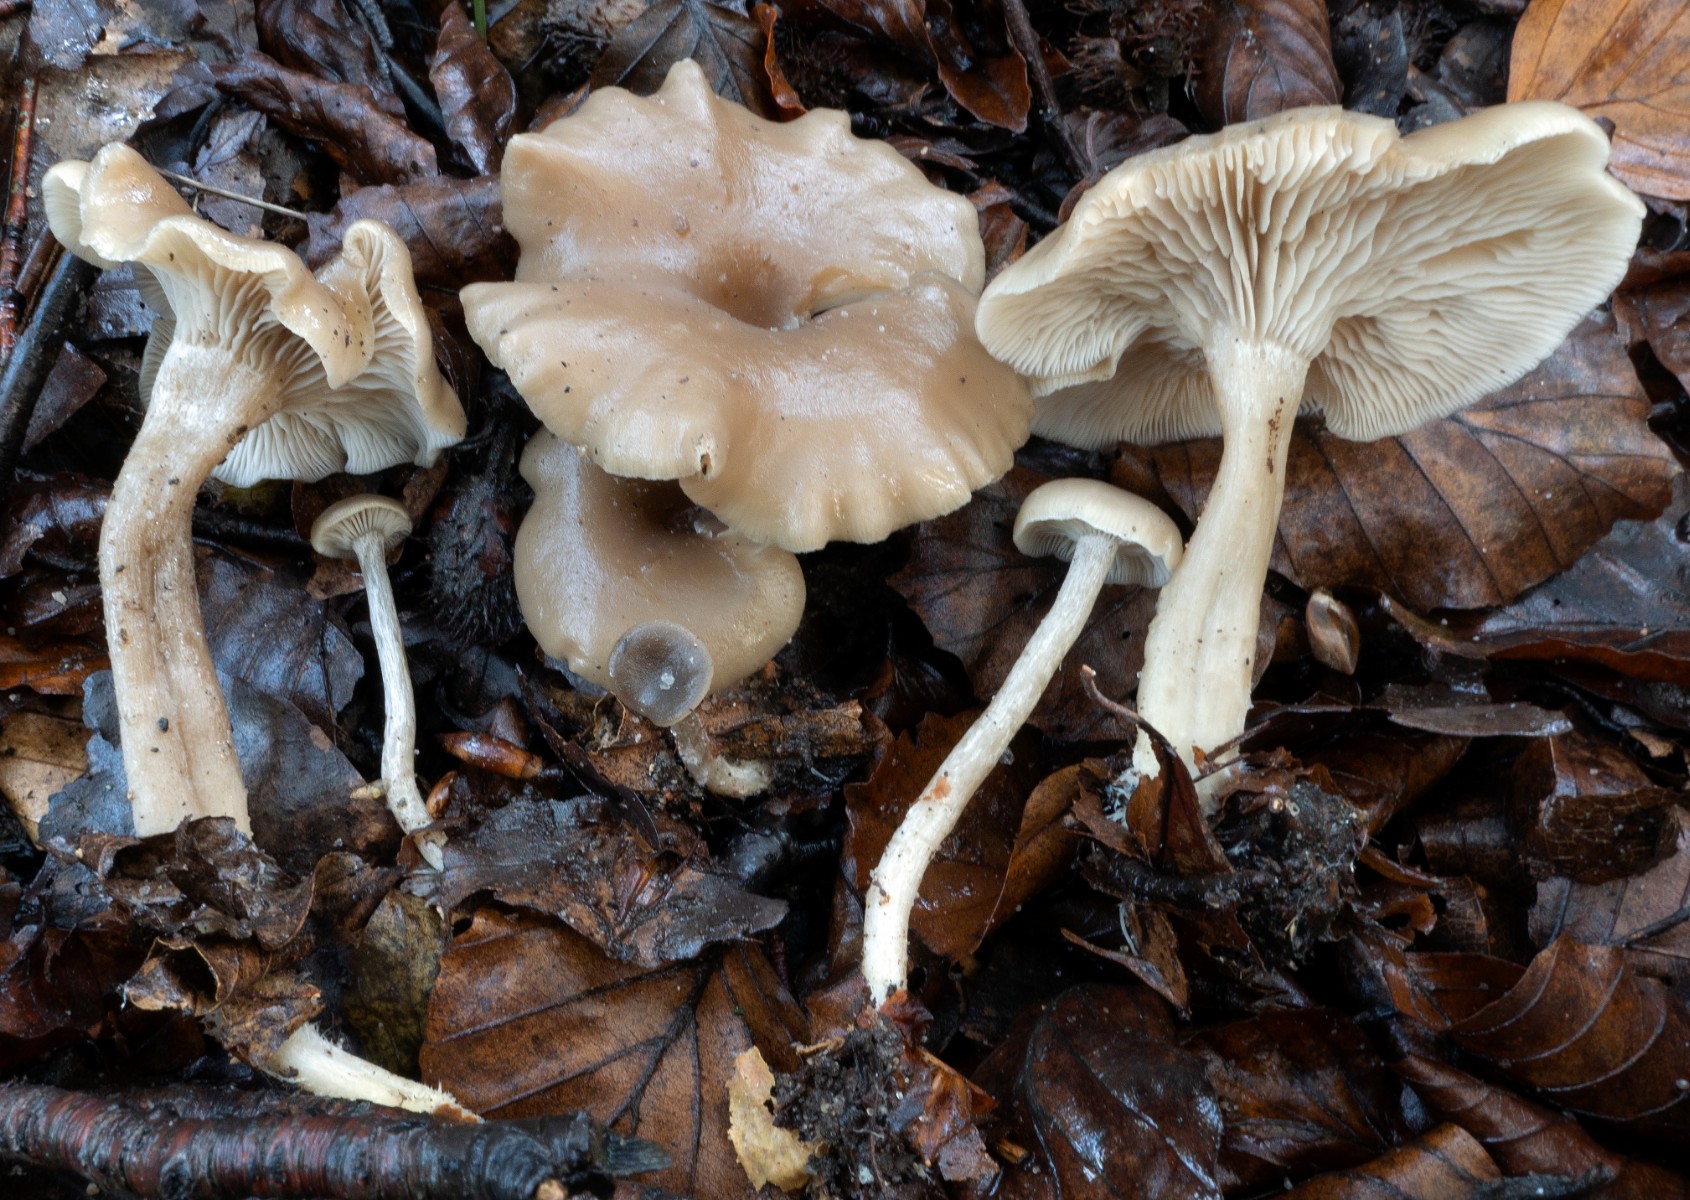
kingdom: Fungi
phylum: Basidiomycota
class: Agaricomycetes
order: Agaricales
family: Tricholomataceae
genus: Clitocybe
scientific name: Clitocybe subspadicea
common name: nitrøs tragthat
